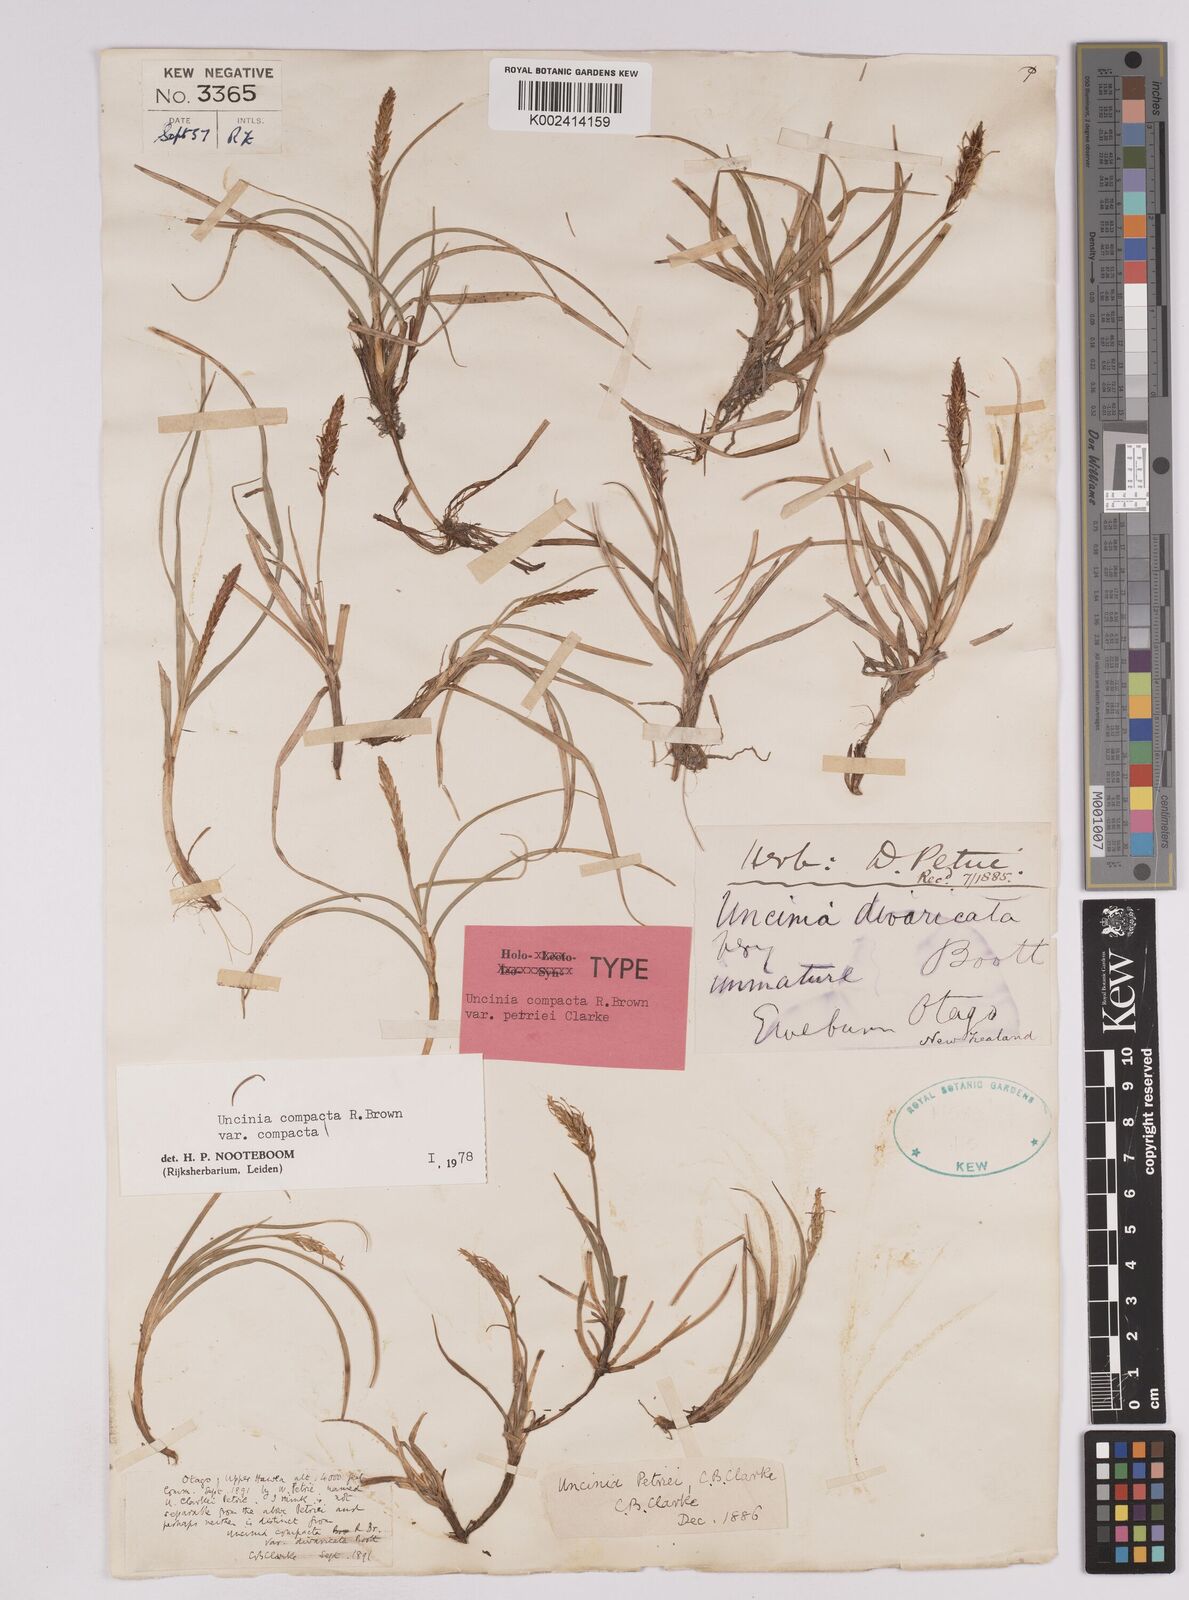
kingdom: Plantae
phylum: Tracheophyta
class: Liliopsida
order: Poales
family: Cyperaceae
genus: Carex
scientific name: Carex austrocompacta
